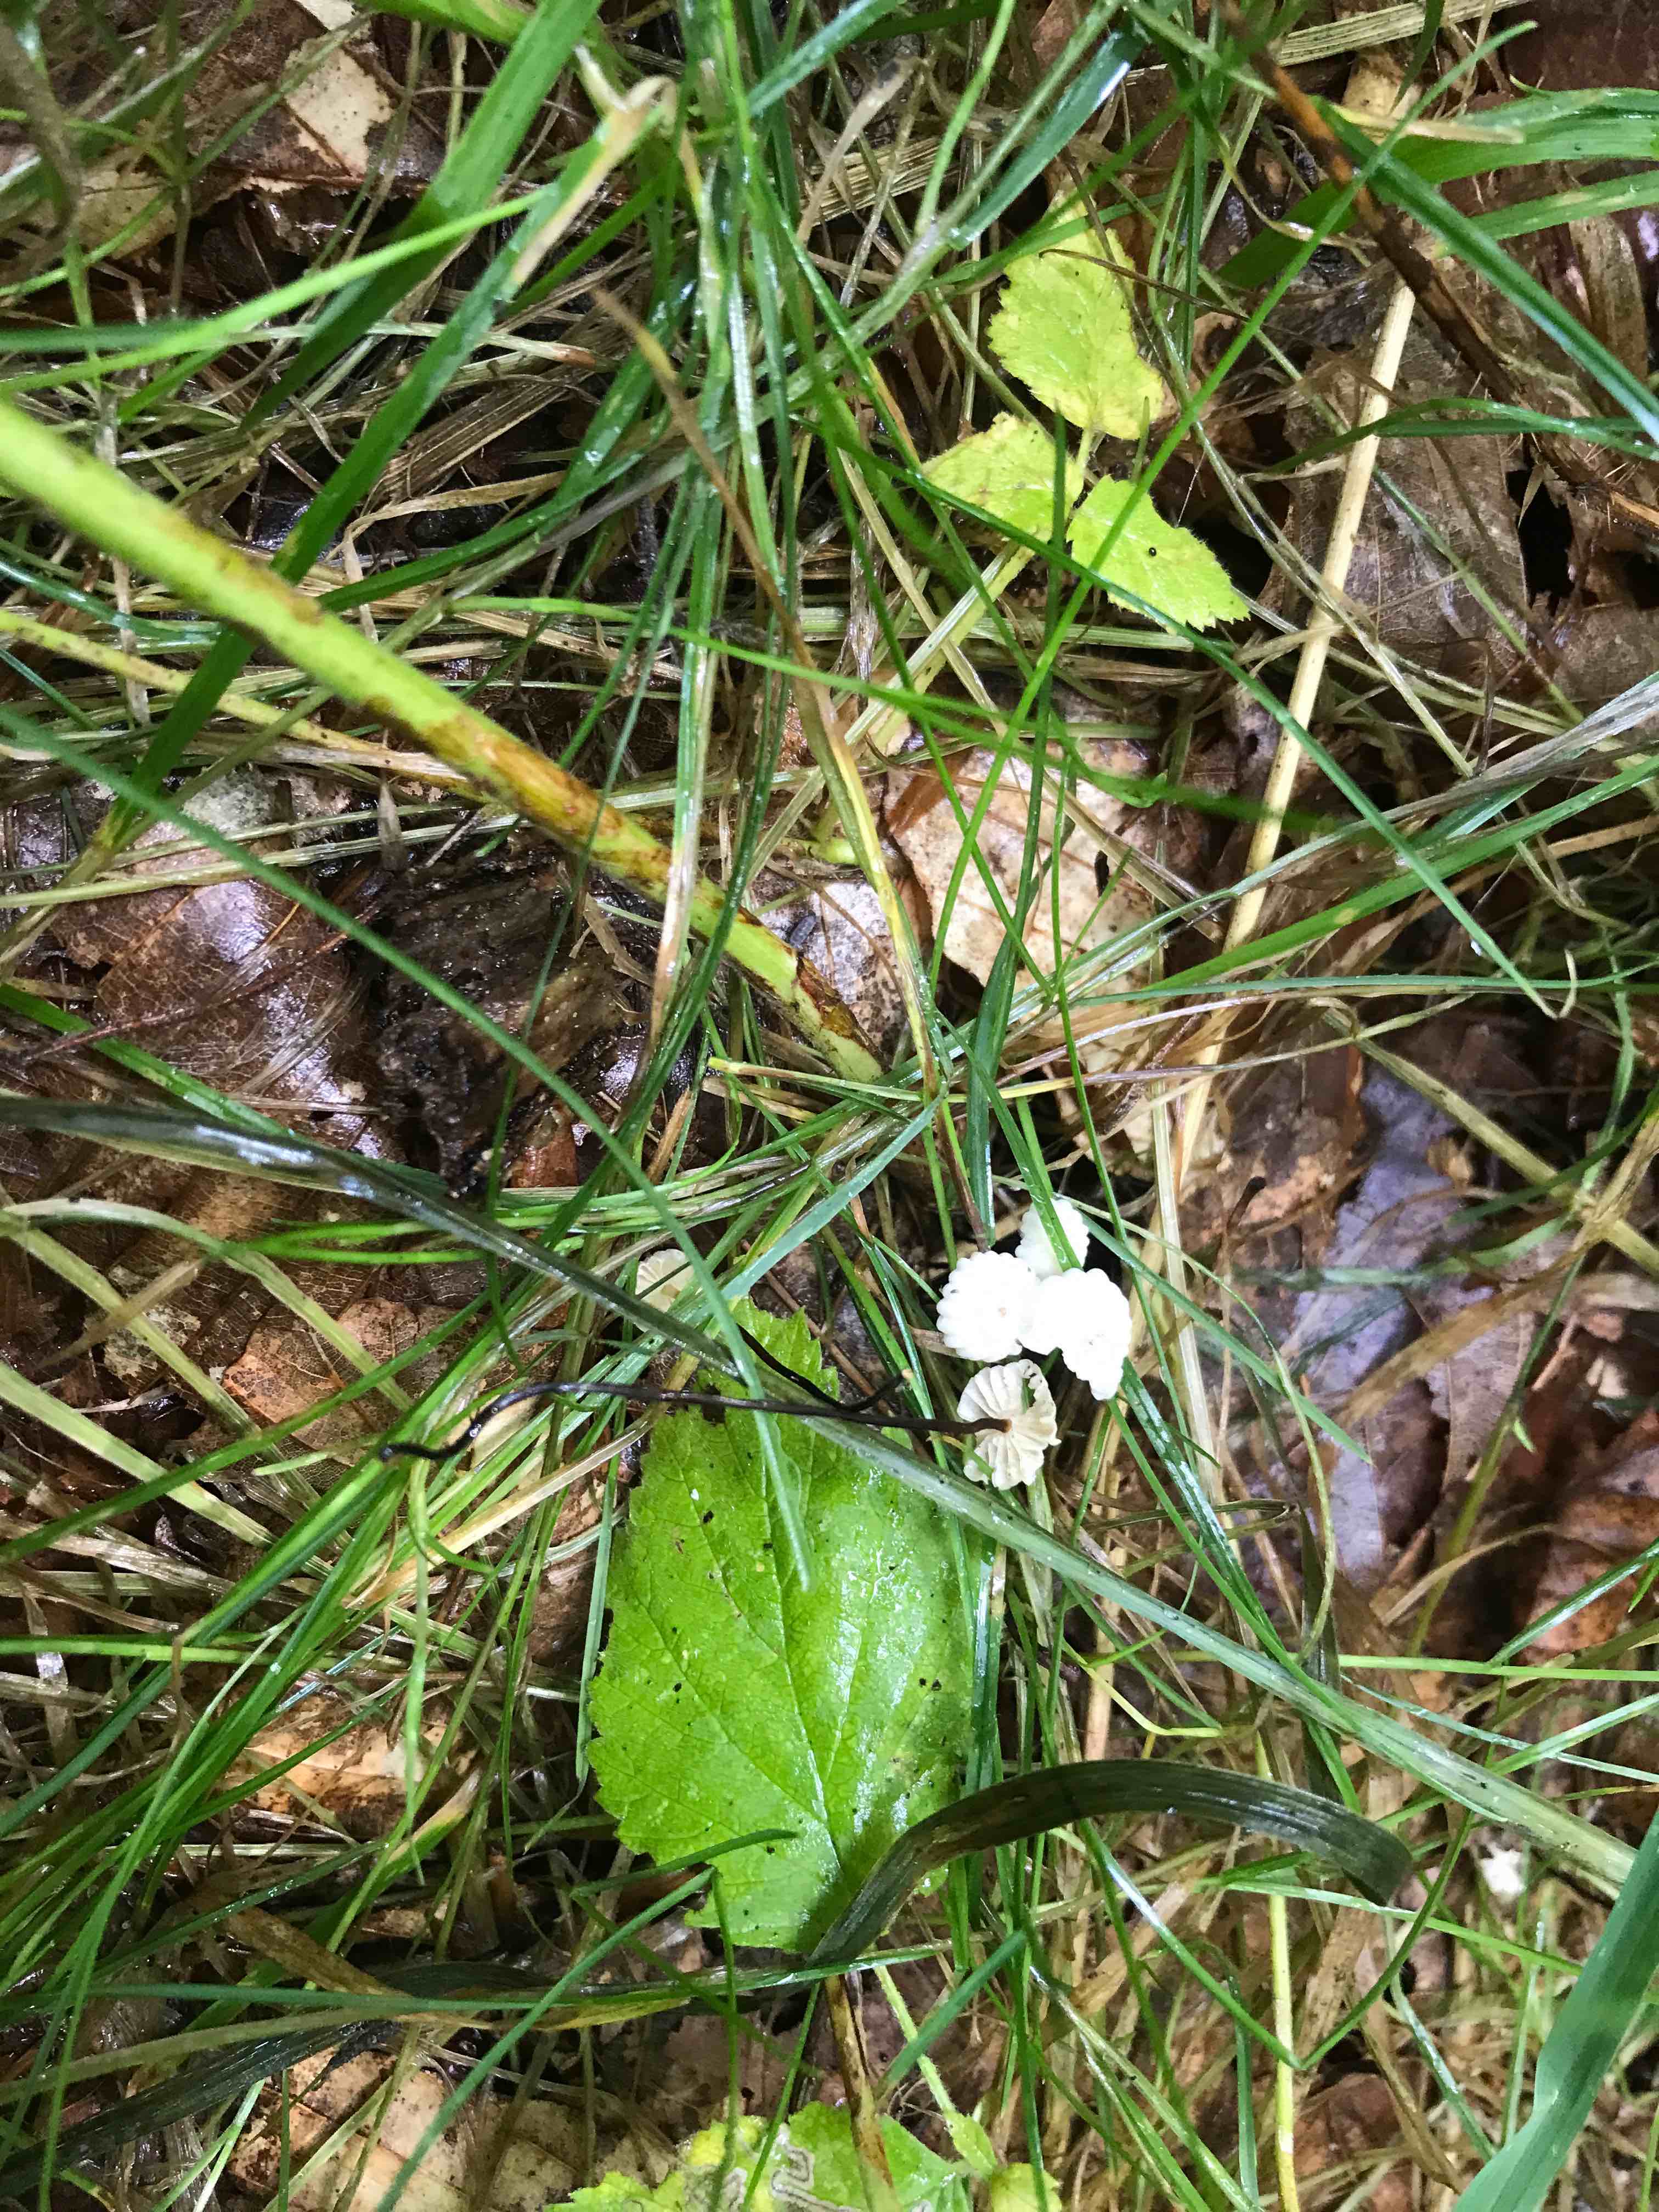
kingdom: Fungi
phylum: Basidiomycota
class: Agaricomycetes
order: Agaricales
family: Marasmiaceae
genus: Marasmius
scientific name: Marasmius rotula
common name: hjul-bruskhat
